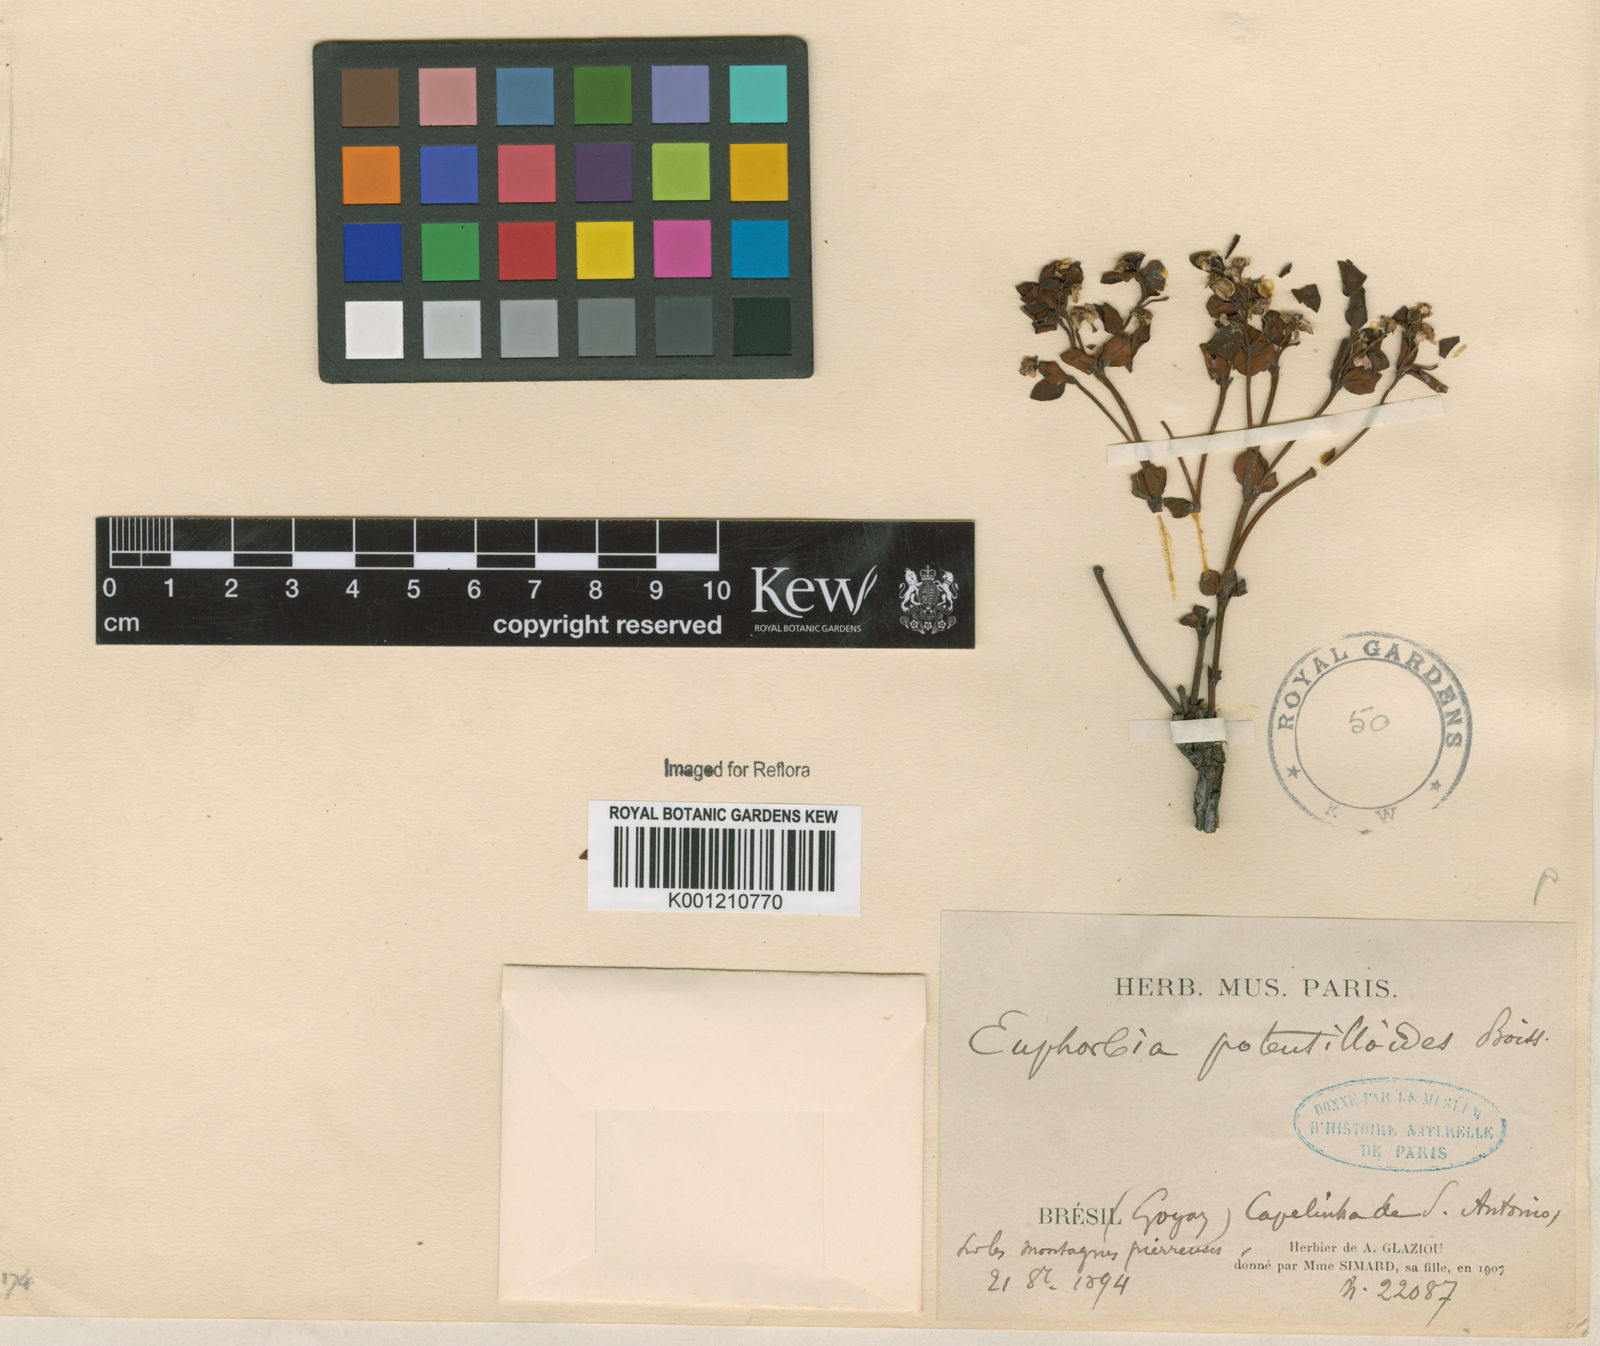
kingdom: Plantae
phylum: Tracheophyta
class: Magnoliopsida
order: Malpighiales
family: Euphorbiaceae
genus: Euphorbia
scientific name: Euphorbia potentilloides
